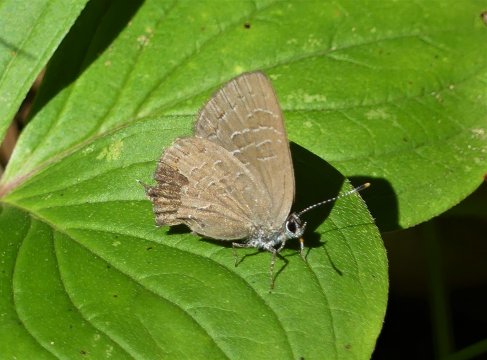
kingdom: Animalia
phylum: Arthropoda
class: Insecta
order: Lepidoptera
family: Lycaenidae
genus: Satyrium
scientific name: Satyrium liparops
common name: Striped Hairstreak
